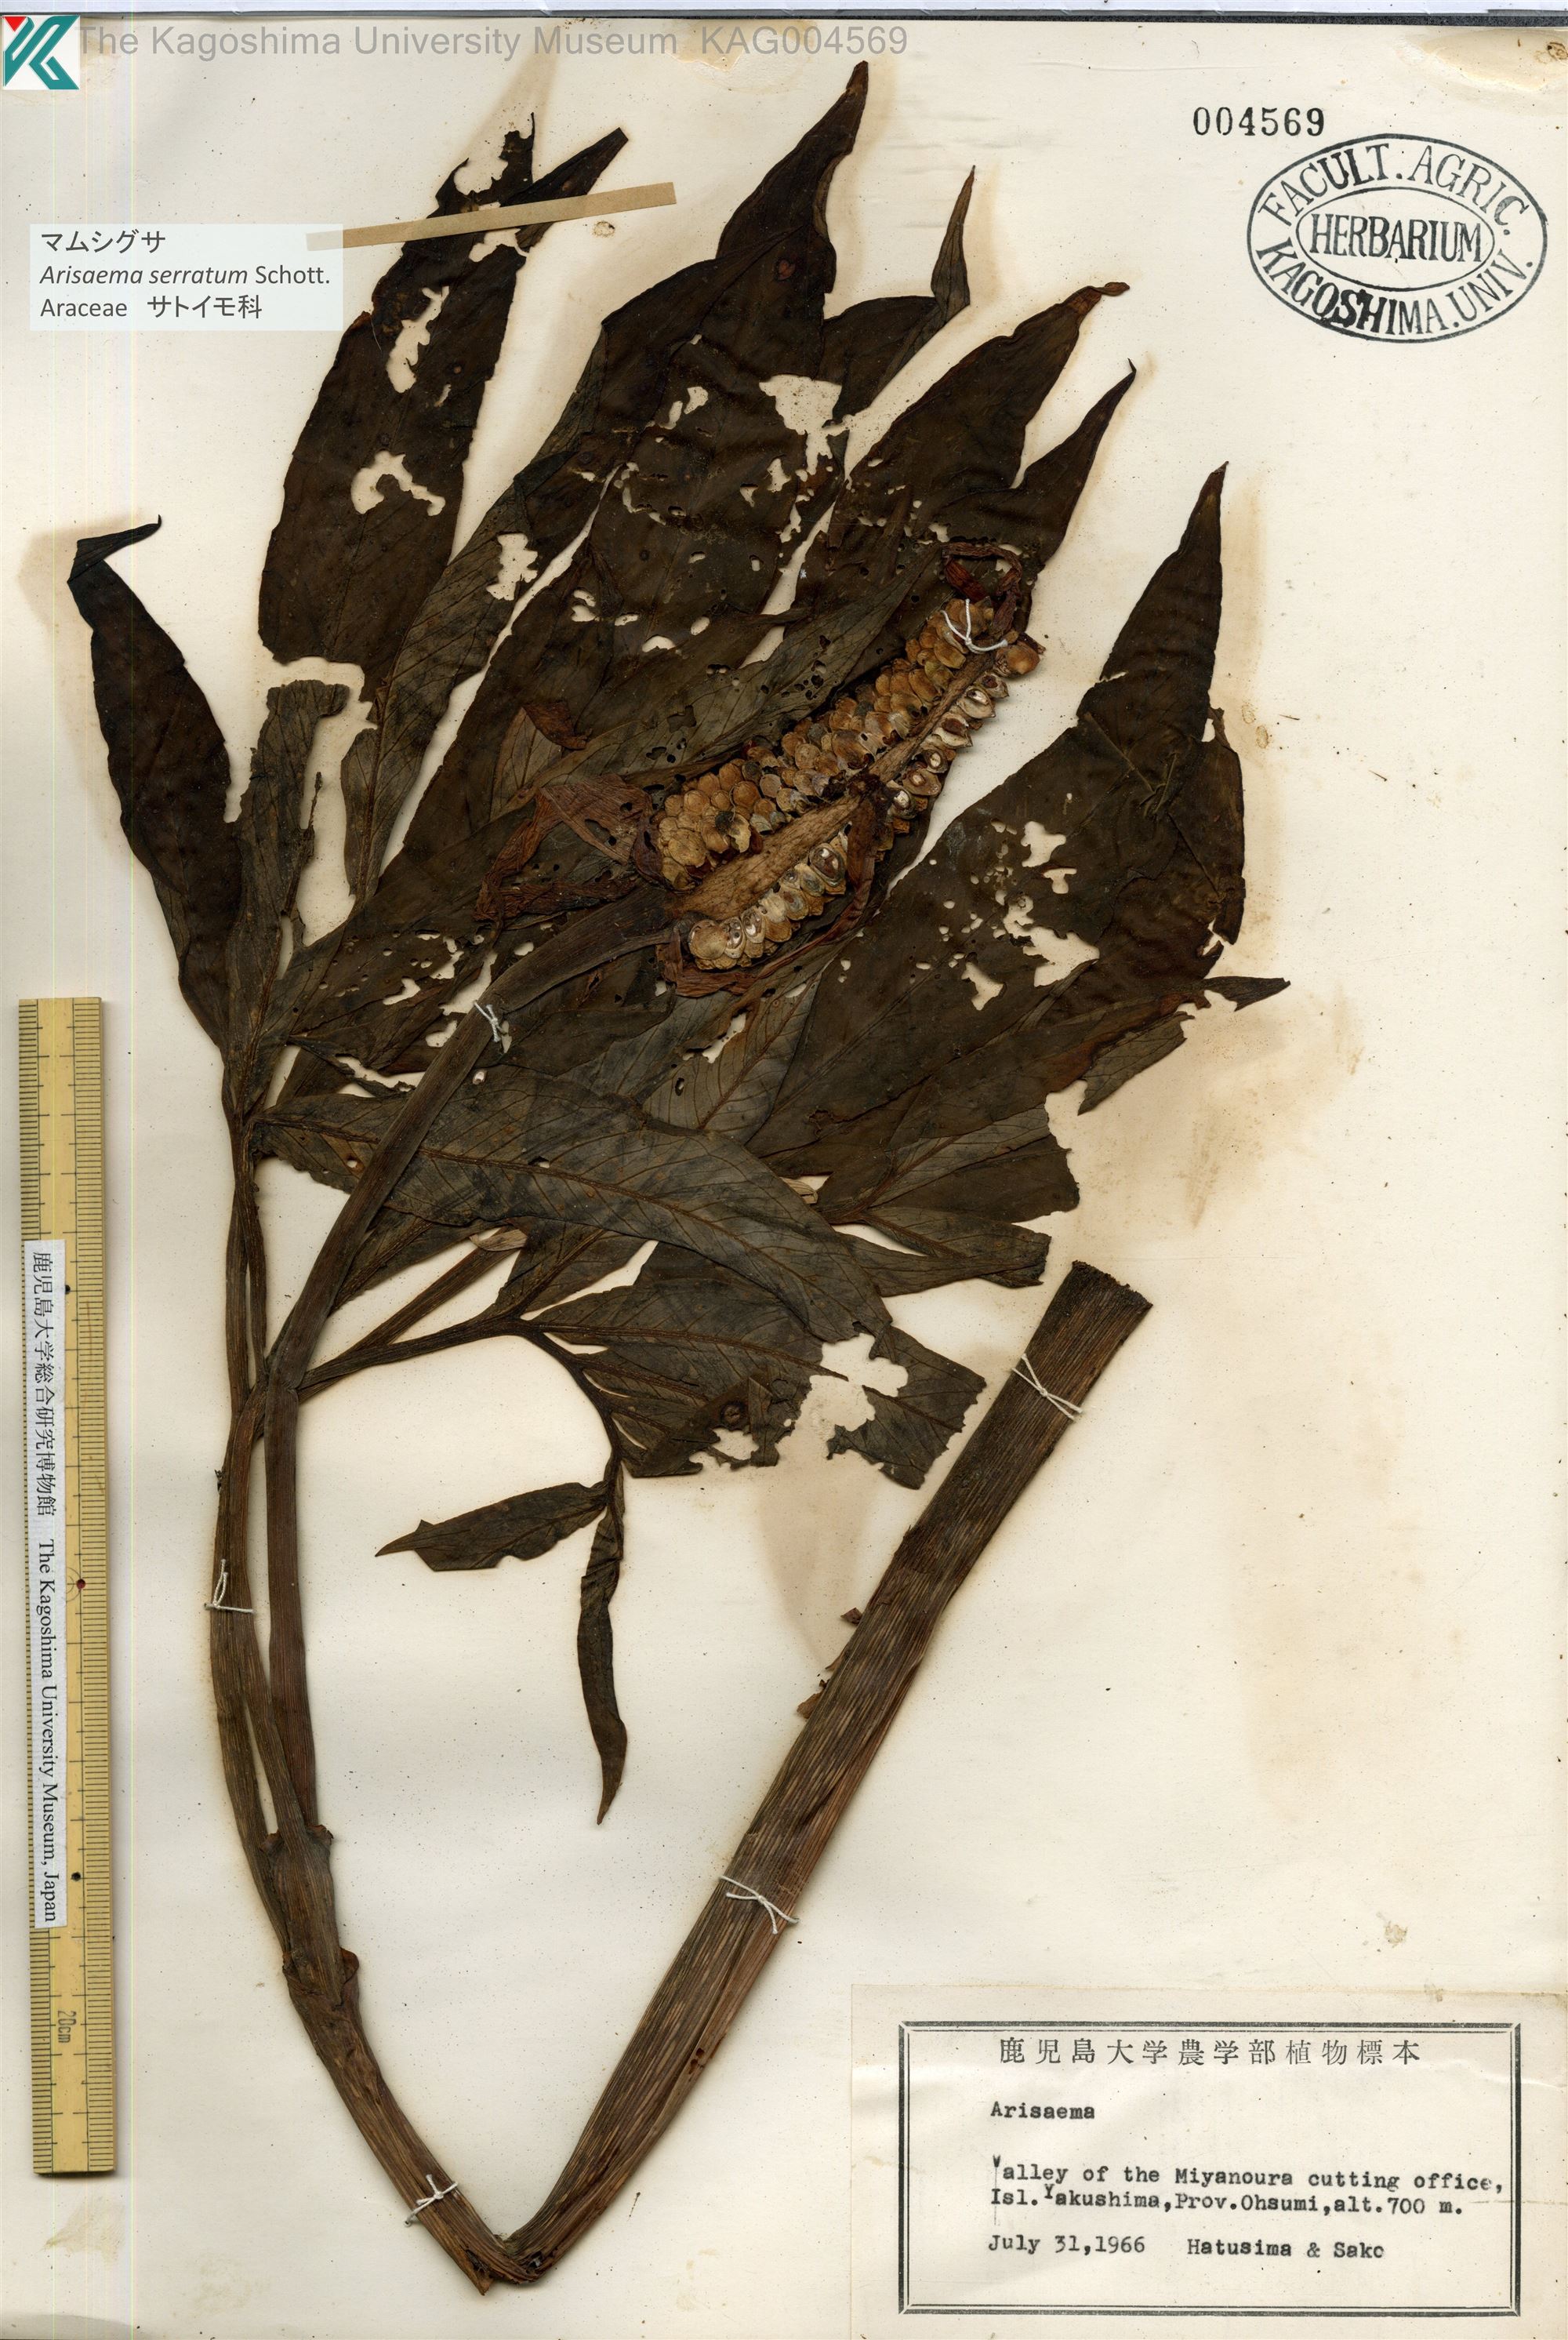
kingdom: Plantae
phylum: Tracheophyta
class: Liliopsida
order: Alismatales
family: Araceae
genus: Arisaema
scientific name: Arisaema serratum
